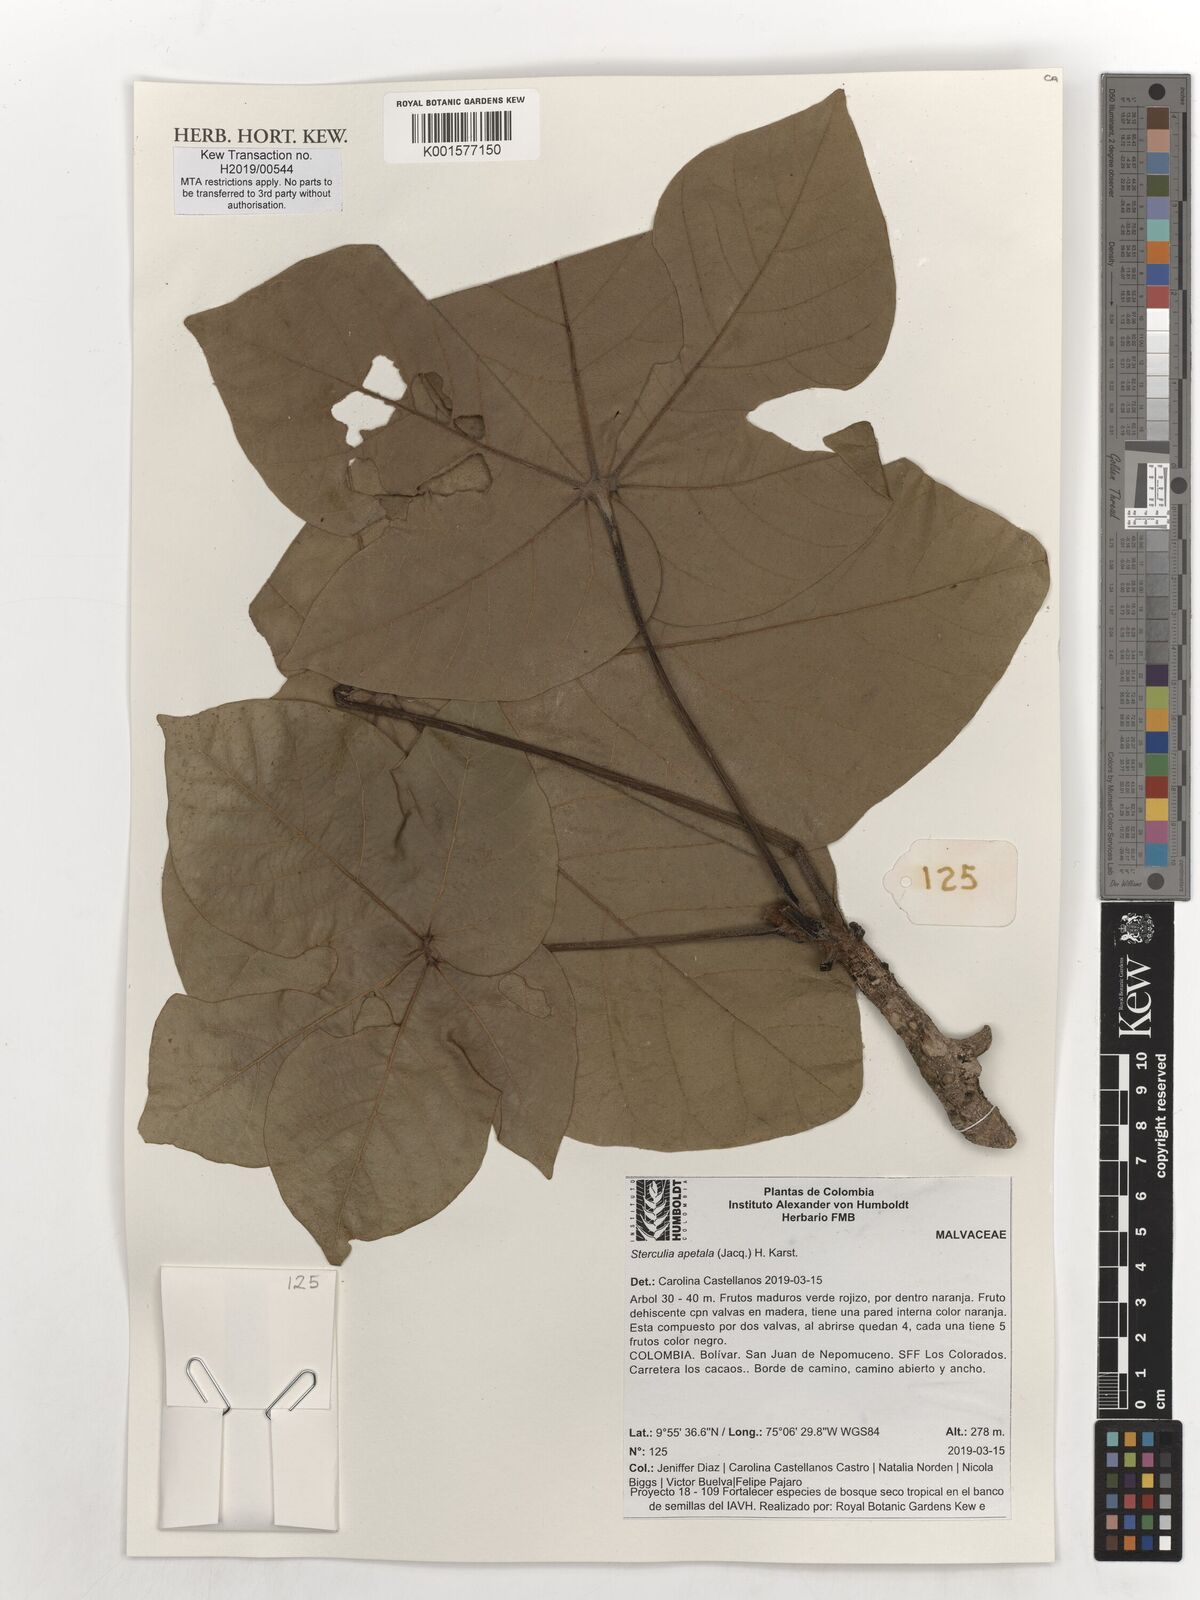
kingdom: Plantae
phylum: Tracheophyta
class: Magnoliopsida
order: Malvales
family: Malvaceae
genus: Sterculia
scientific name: Sterculia apetala
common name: Panama tree
